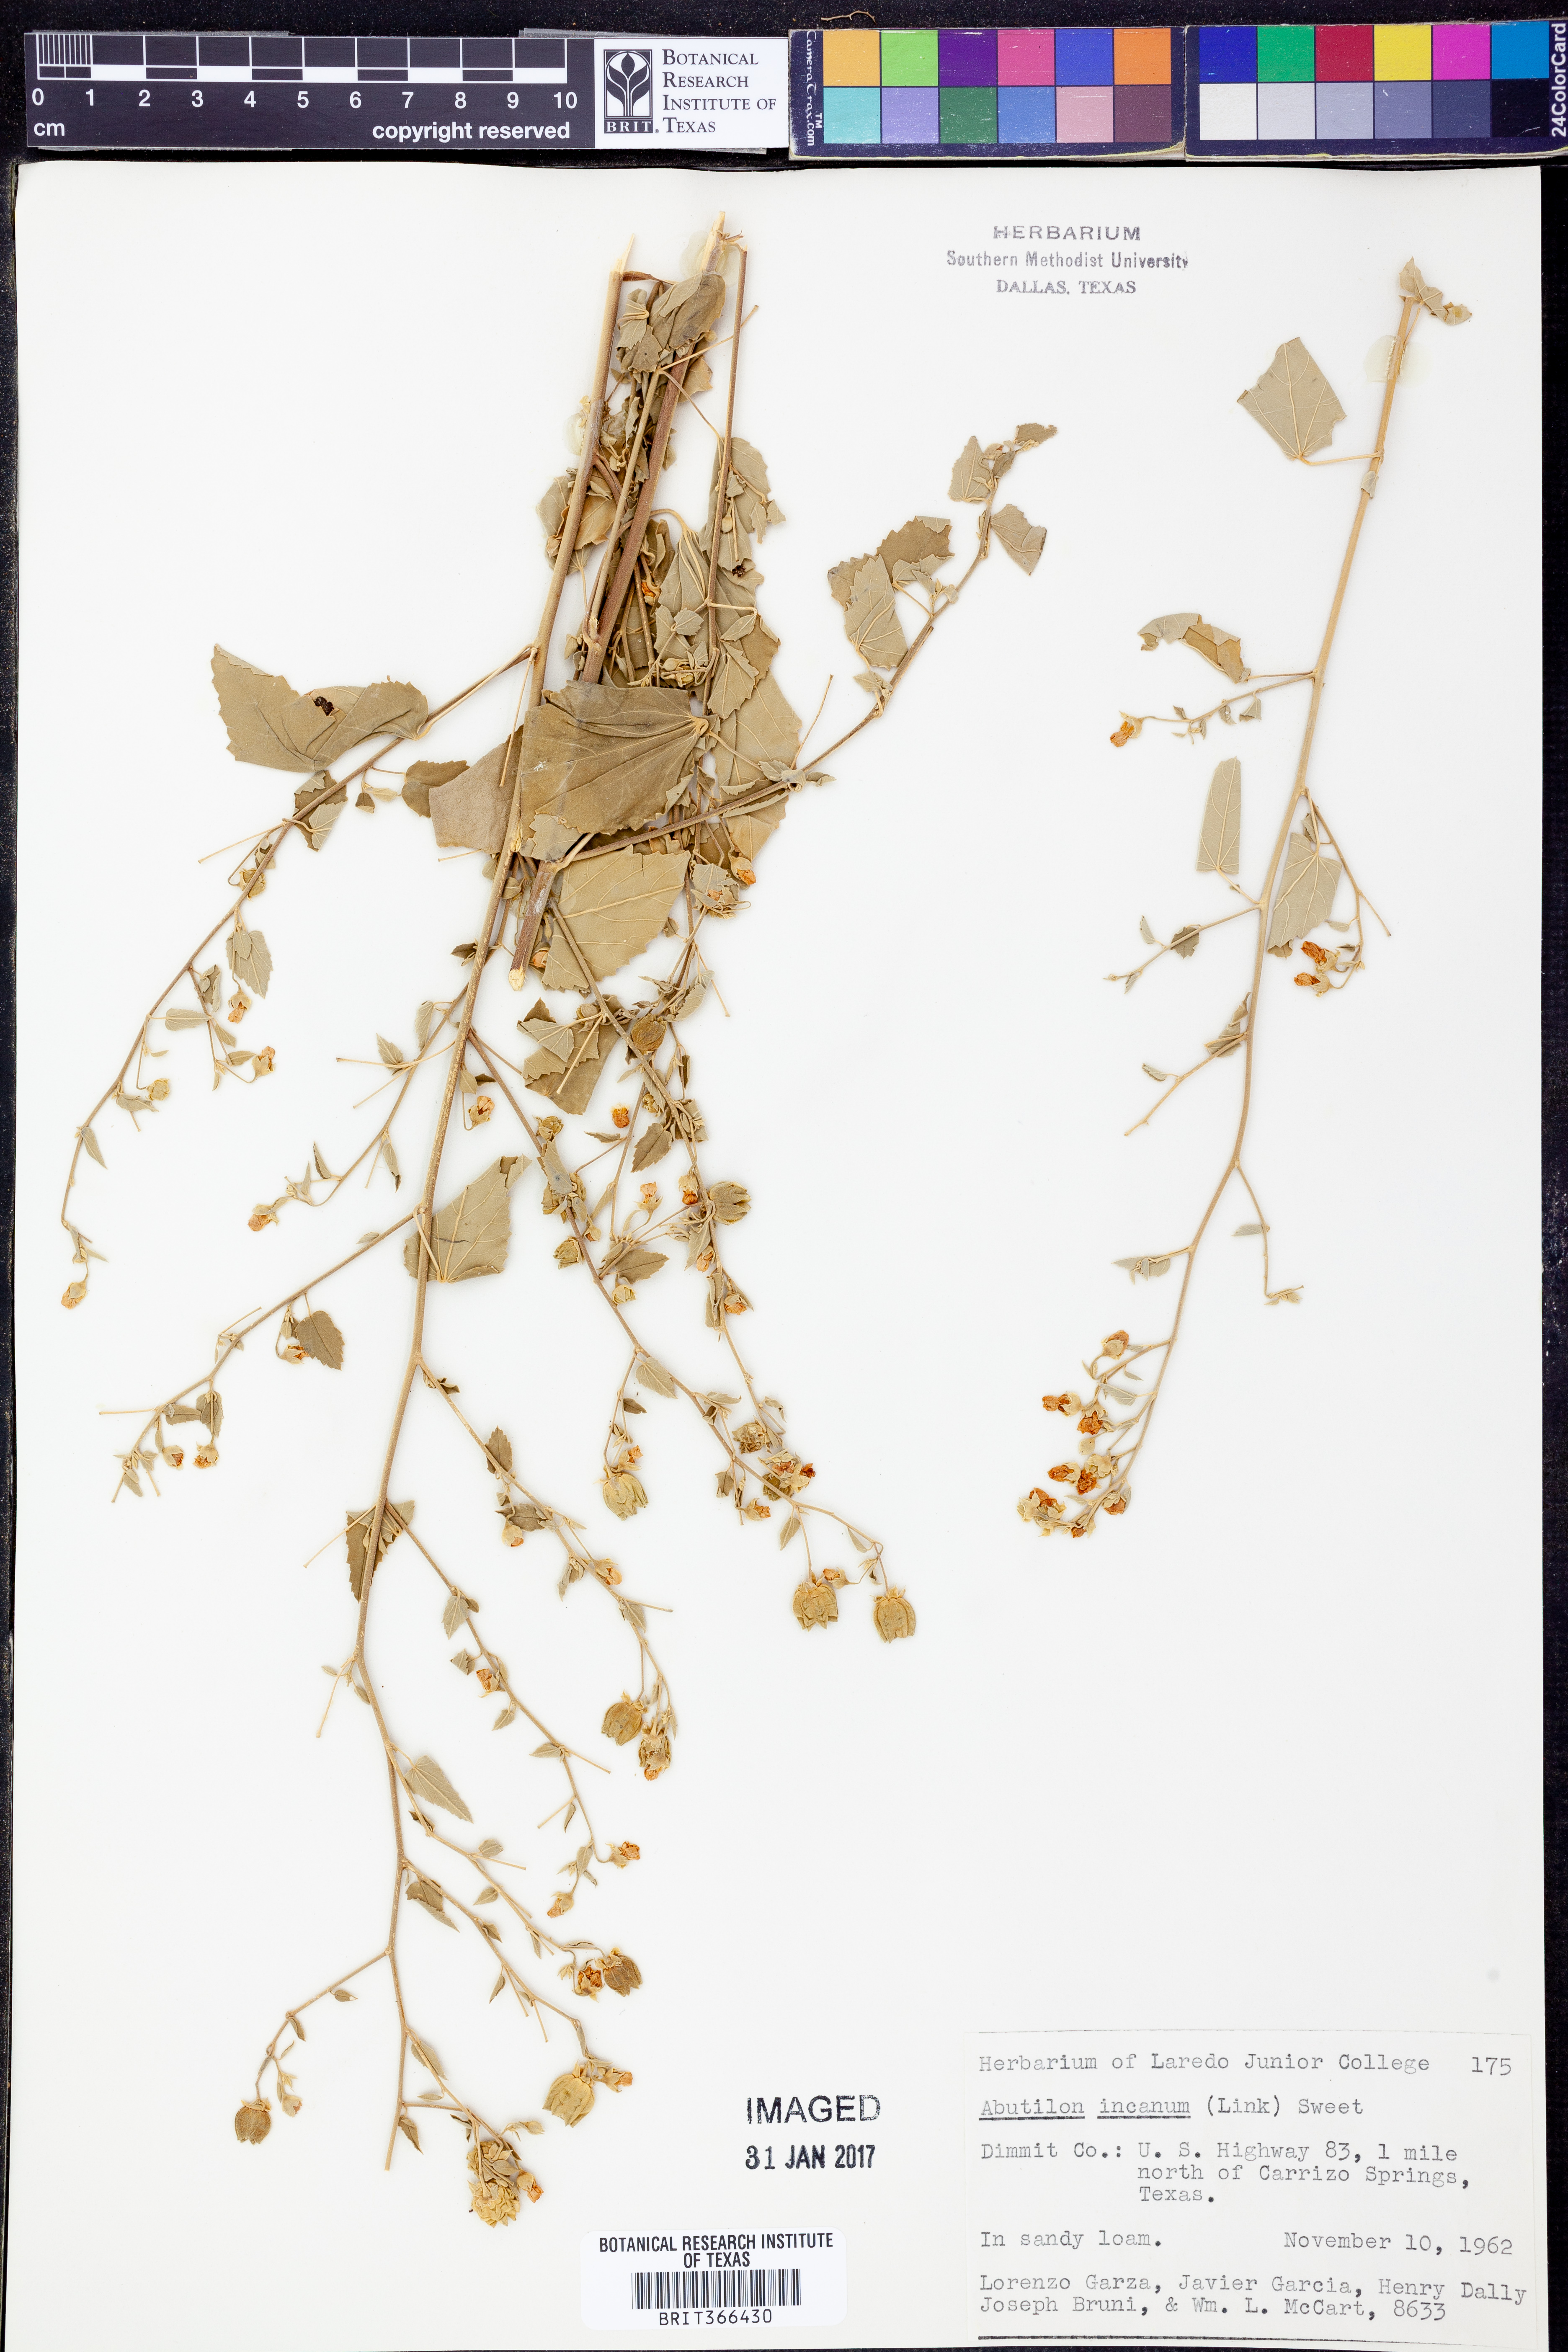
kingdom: Plantae
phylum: Tracheophyta
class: Magnoliopsida
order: Malvales
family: Malvaceae
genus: Abutilon
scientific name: Abutilon incanum
